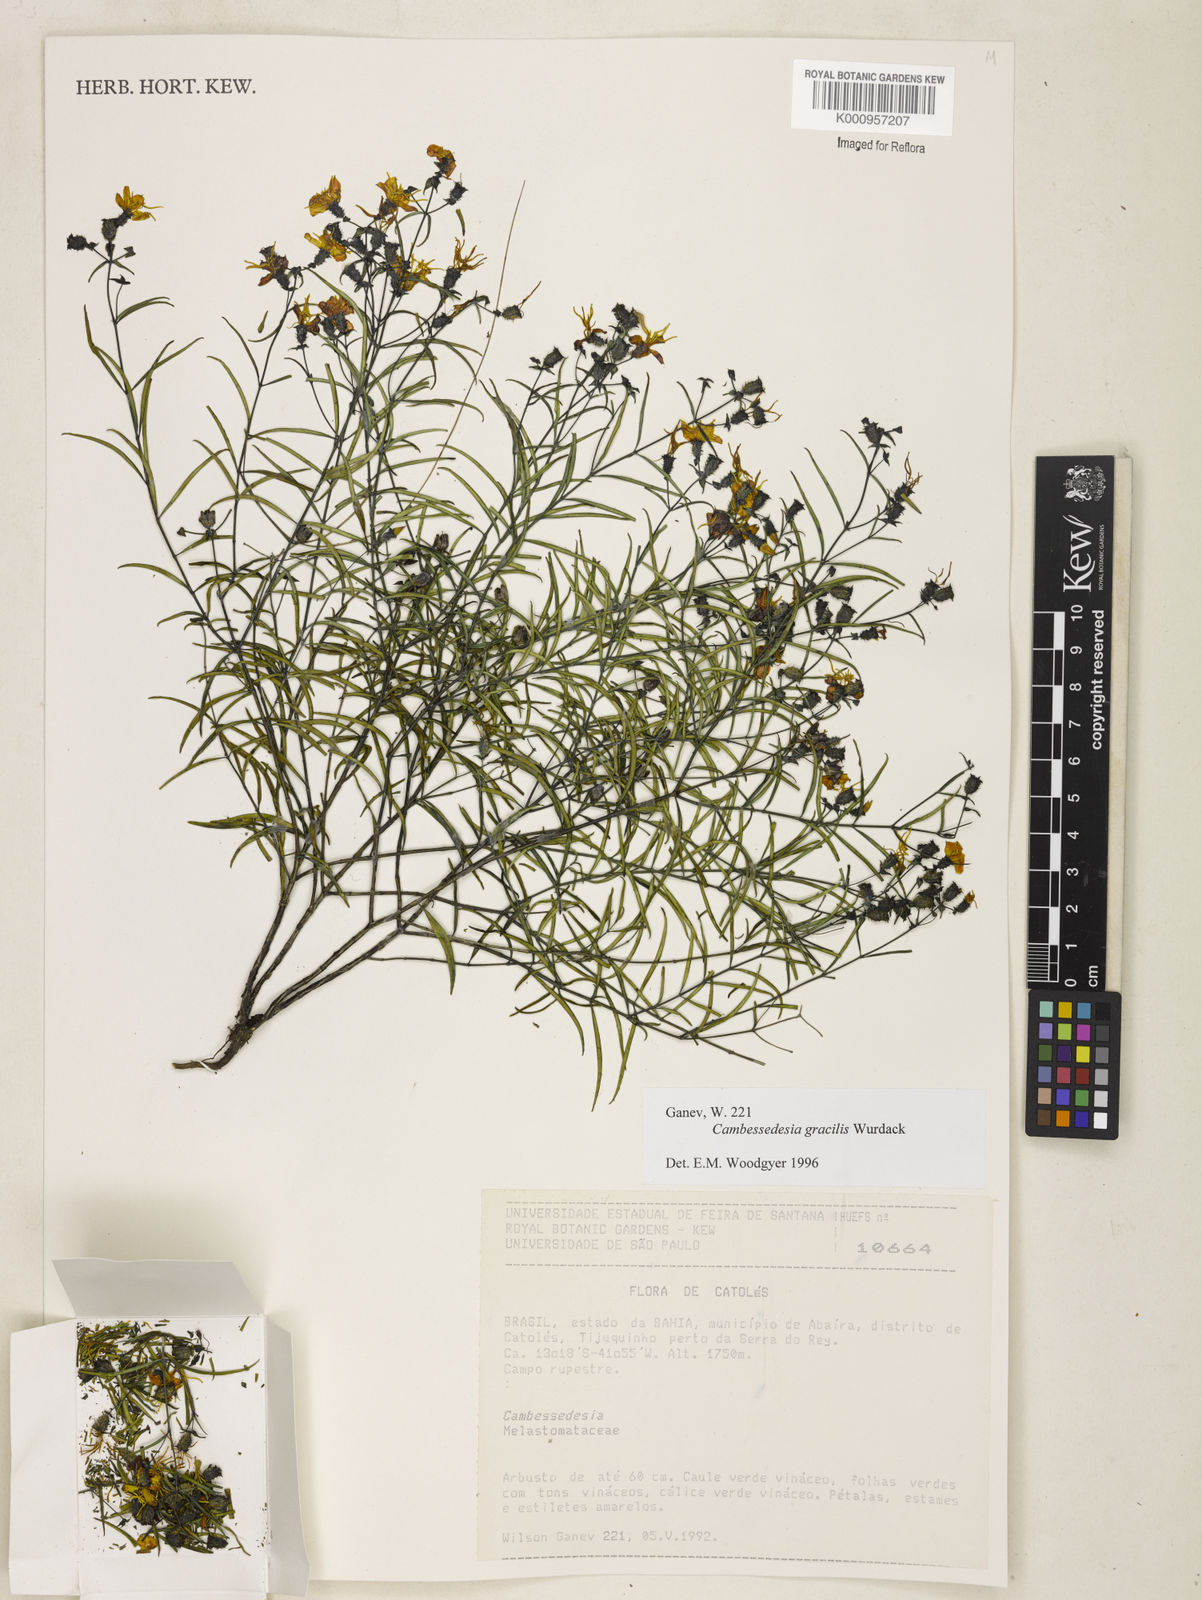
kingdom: Plantae
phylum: Tracheophyta
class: Magnoliopsida
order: Myrtales
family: Melastomataceae
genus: Cambessedesia
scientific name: Cambessedesia gracilis
